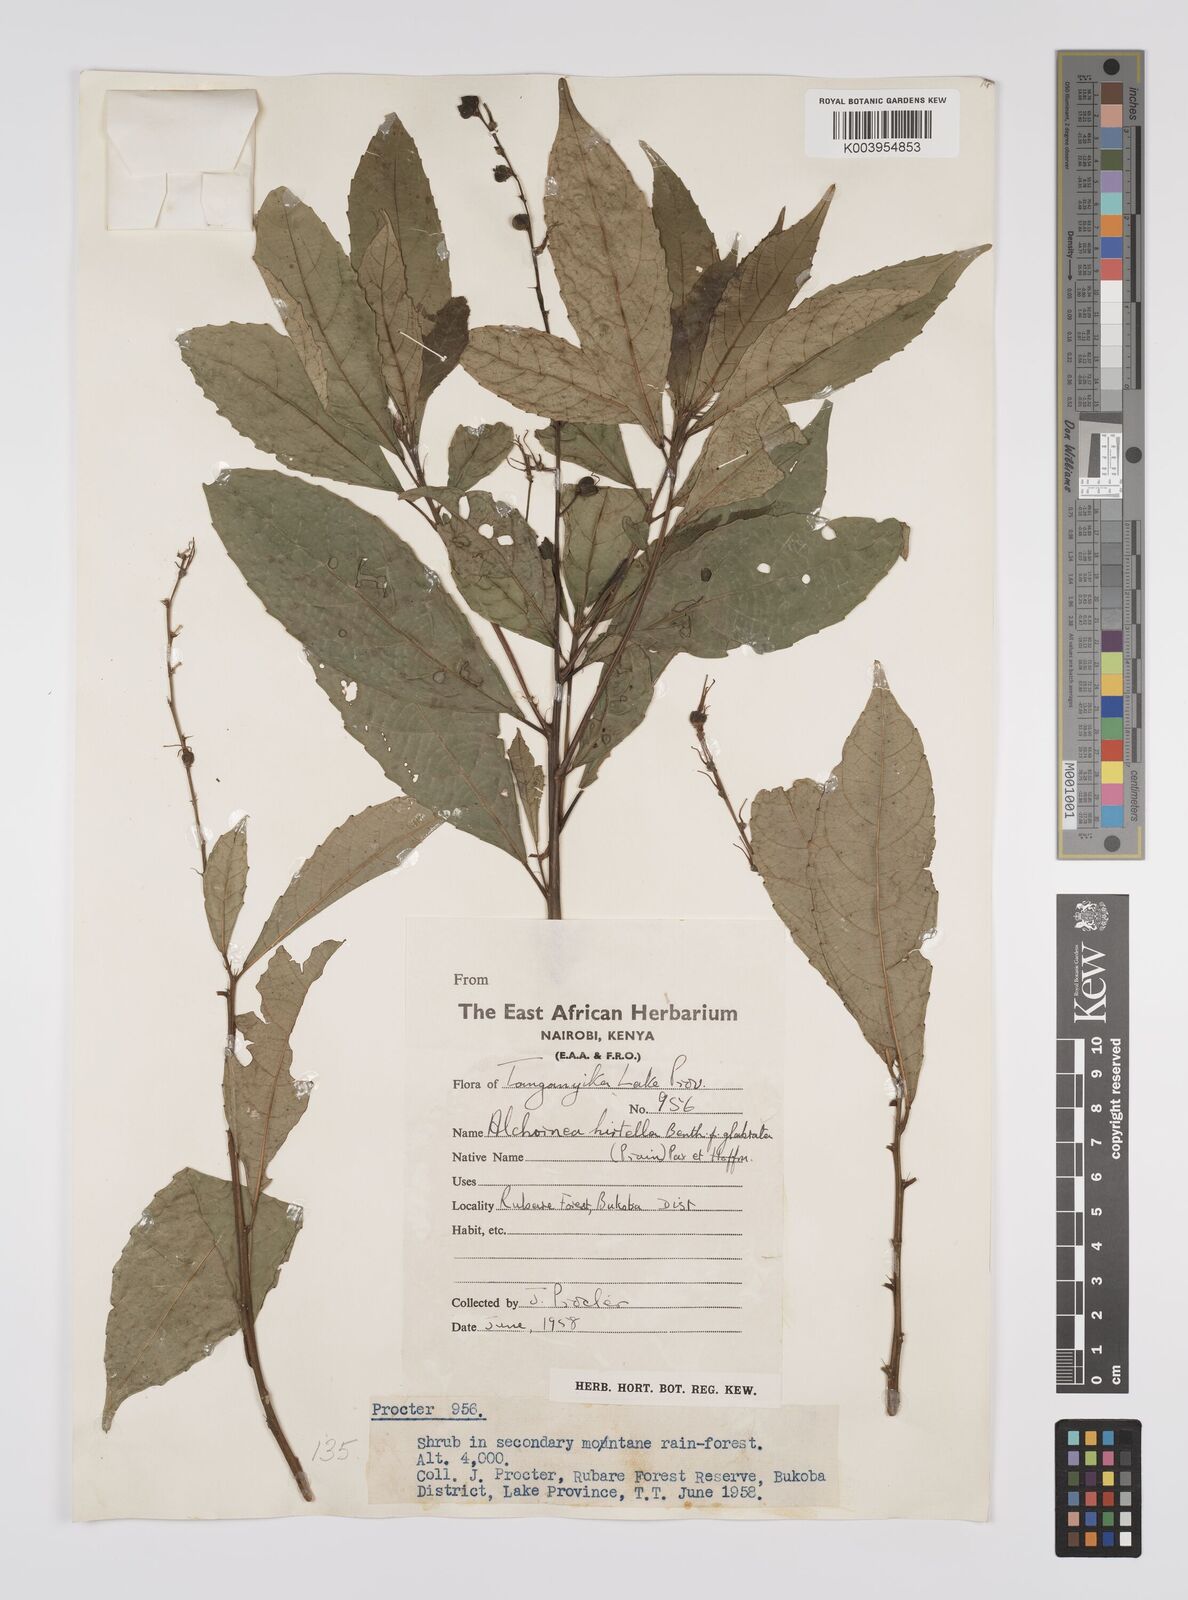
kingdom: Plantae
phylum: Tracheophyta
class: Magnoliopsida
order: Malpighiales
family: Euphorbiaceae
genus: Alchornea
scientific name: Alchornea hirtella
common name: Forest bead-string
